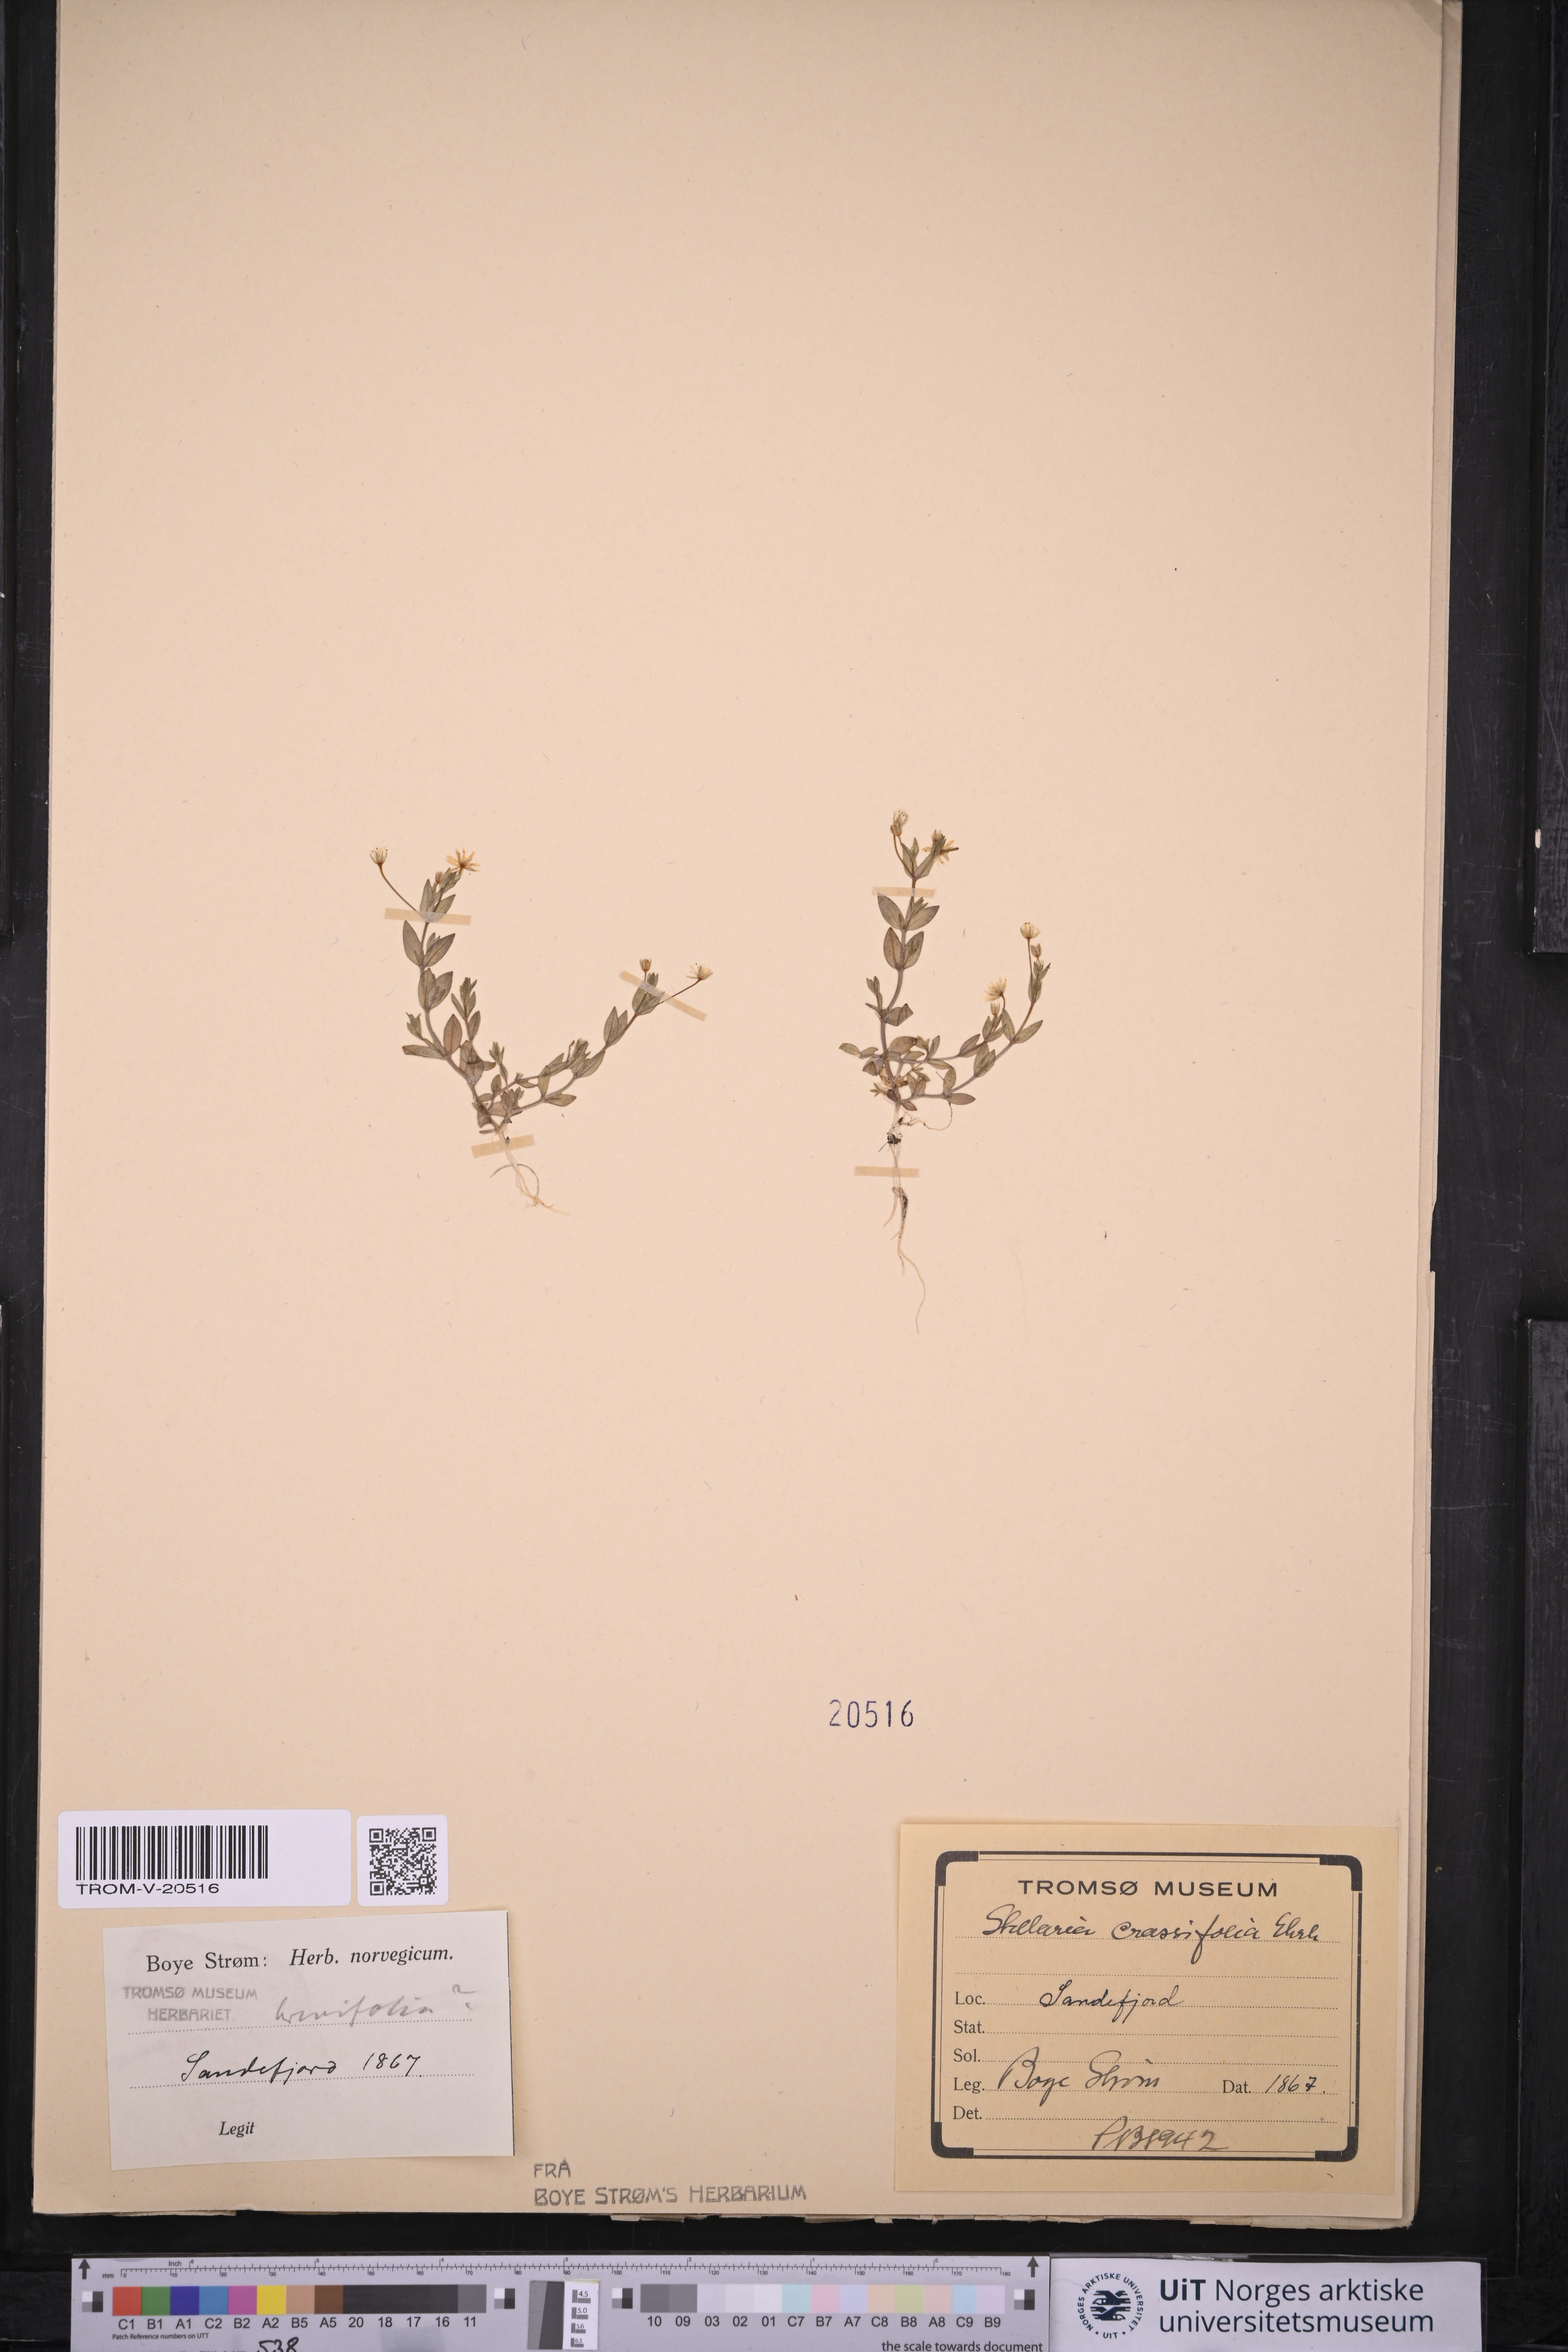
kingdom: Plantae
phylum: Tracheophyta
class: Magnoliopsida
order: Caryophyllales
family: Caryophyllaceae
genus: Stellaria
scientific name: Stellaria crassifolia
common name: Fleshy starwort
